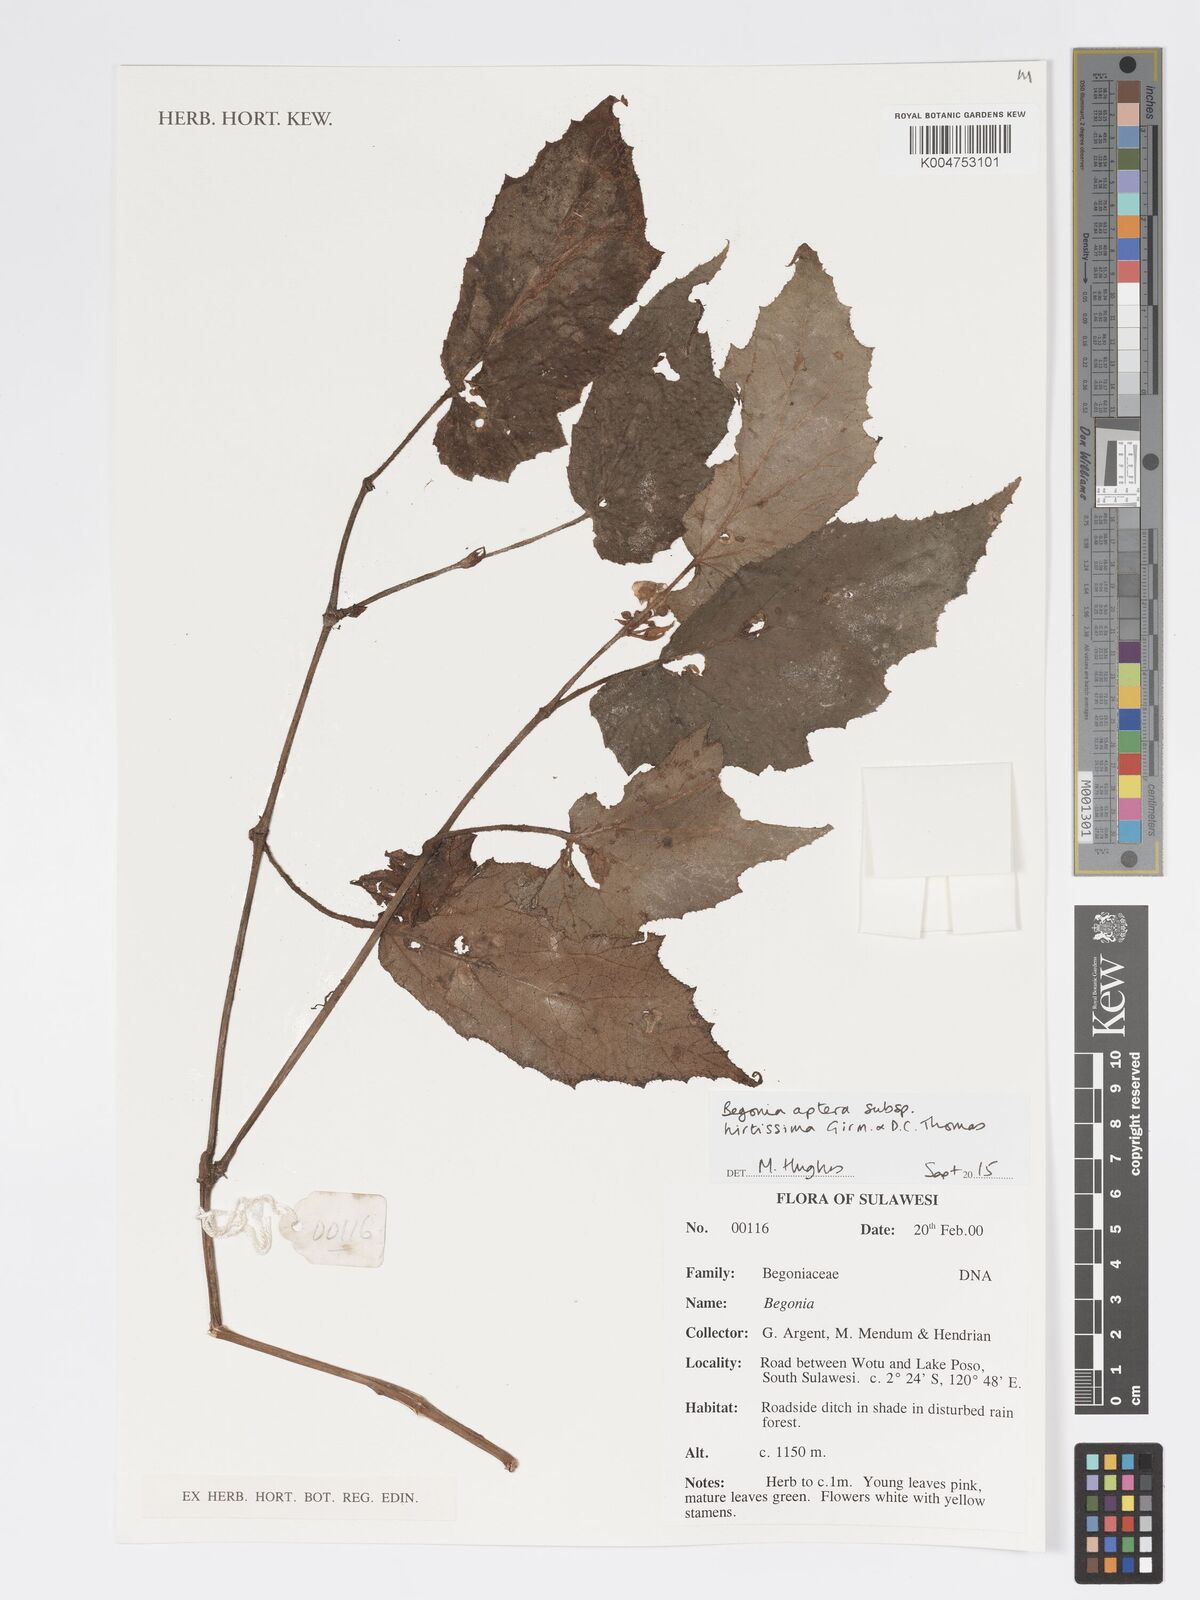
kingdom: Plantae
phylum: Tracheophyta
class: Magnoliopsida
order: Cucurbitales
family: Begoniaceae
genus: Begonia
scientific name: Begonia aptera
